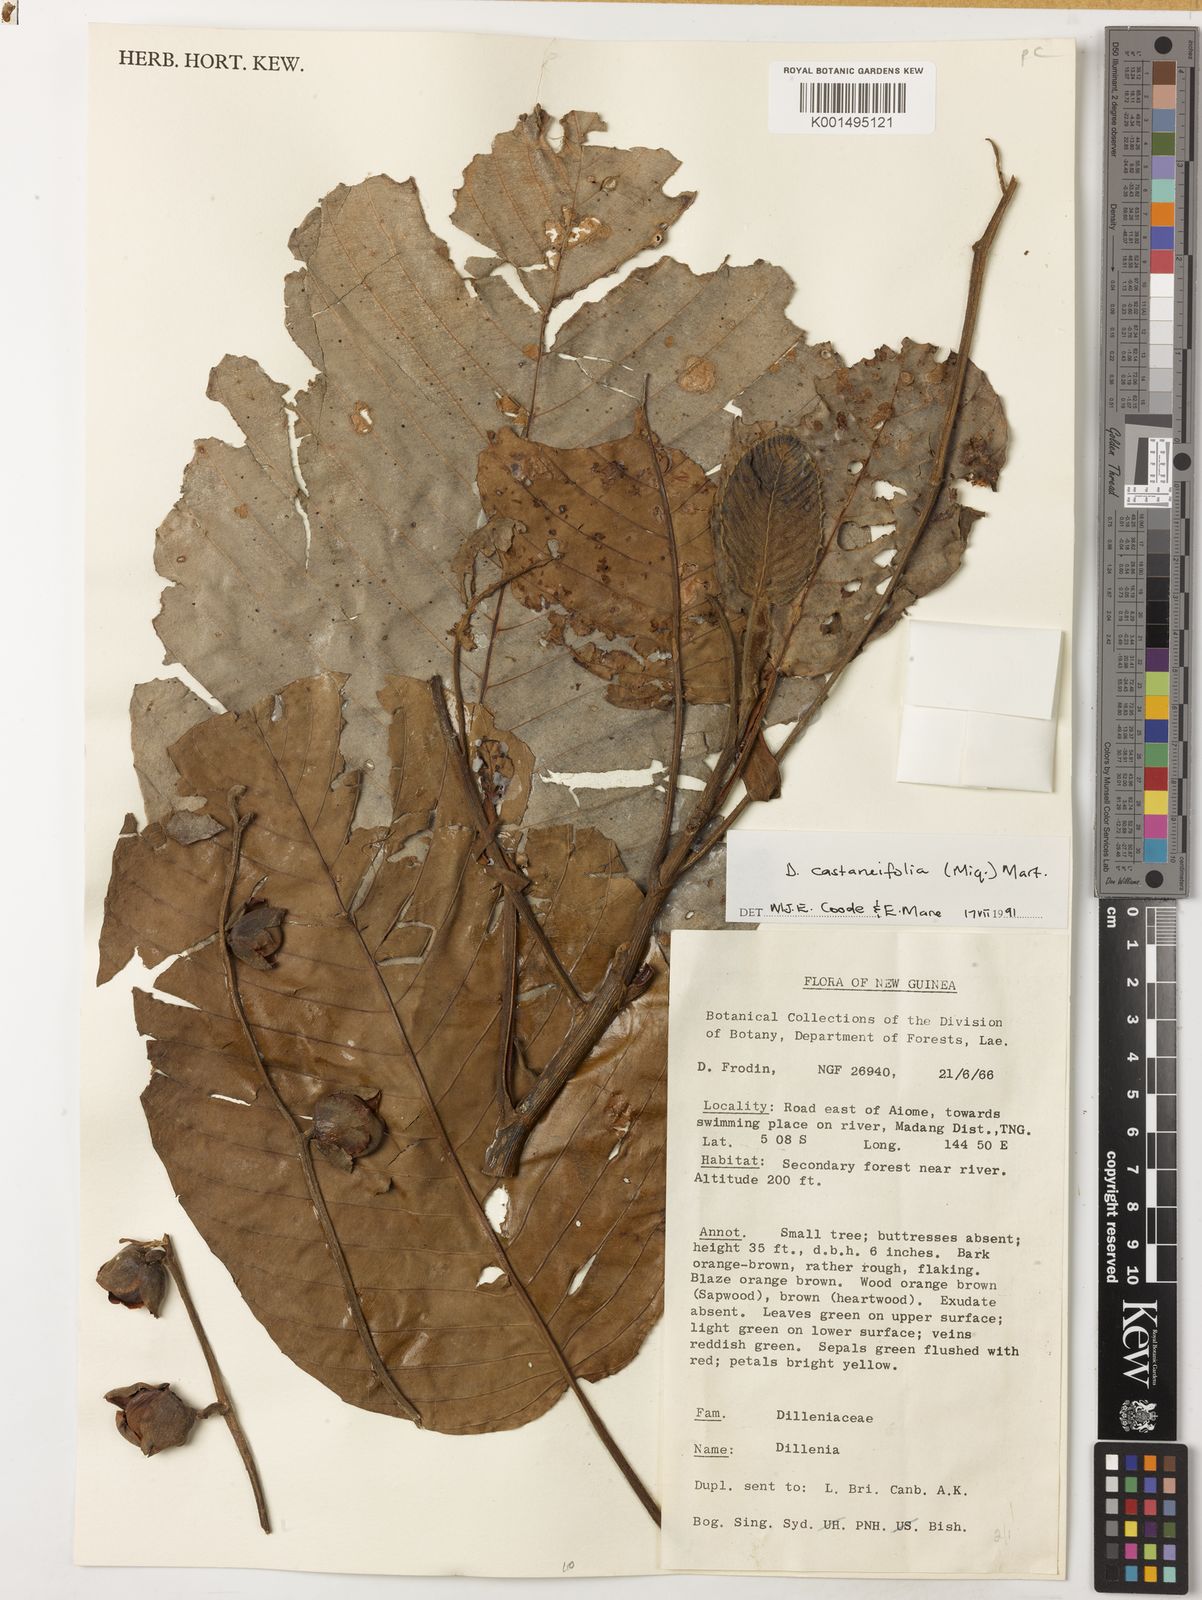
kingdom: Plantae
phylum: Tracheophyta
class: Magnoliopsida
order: Dilleniales
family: Dilleniaceae
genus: Dillenia
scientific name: Dillenia castaneifolia
